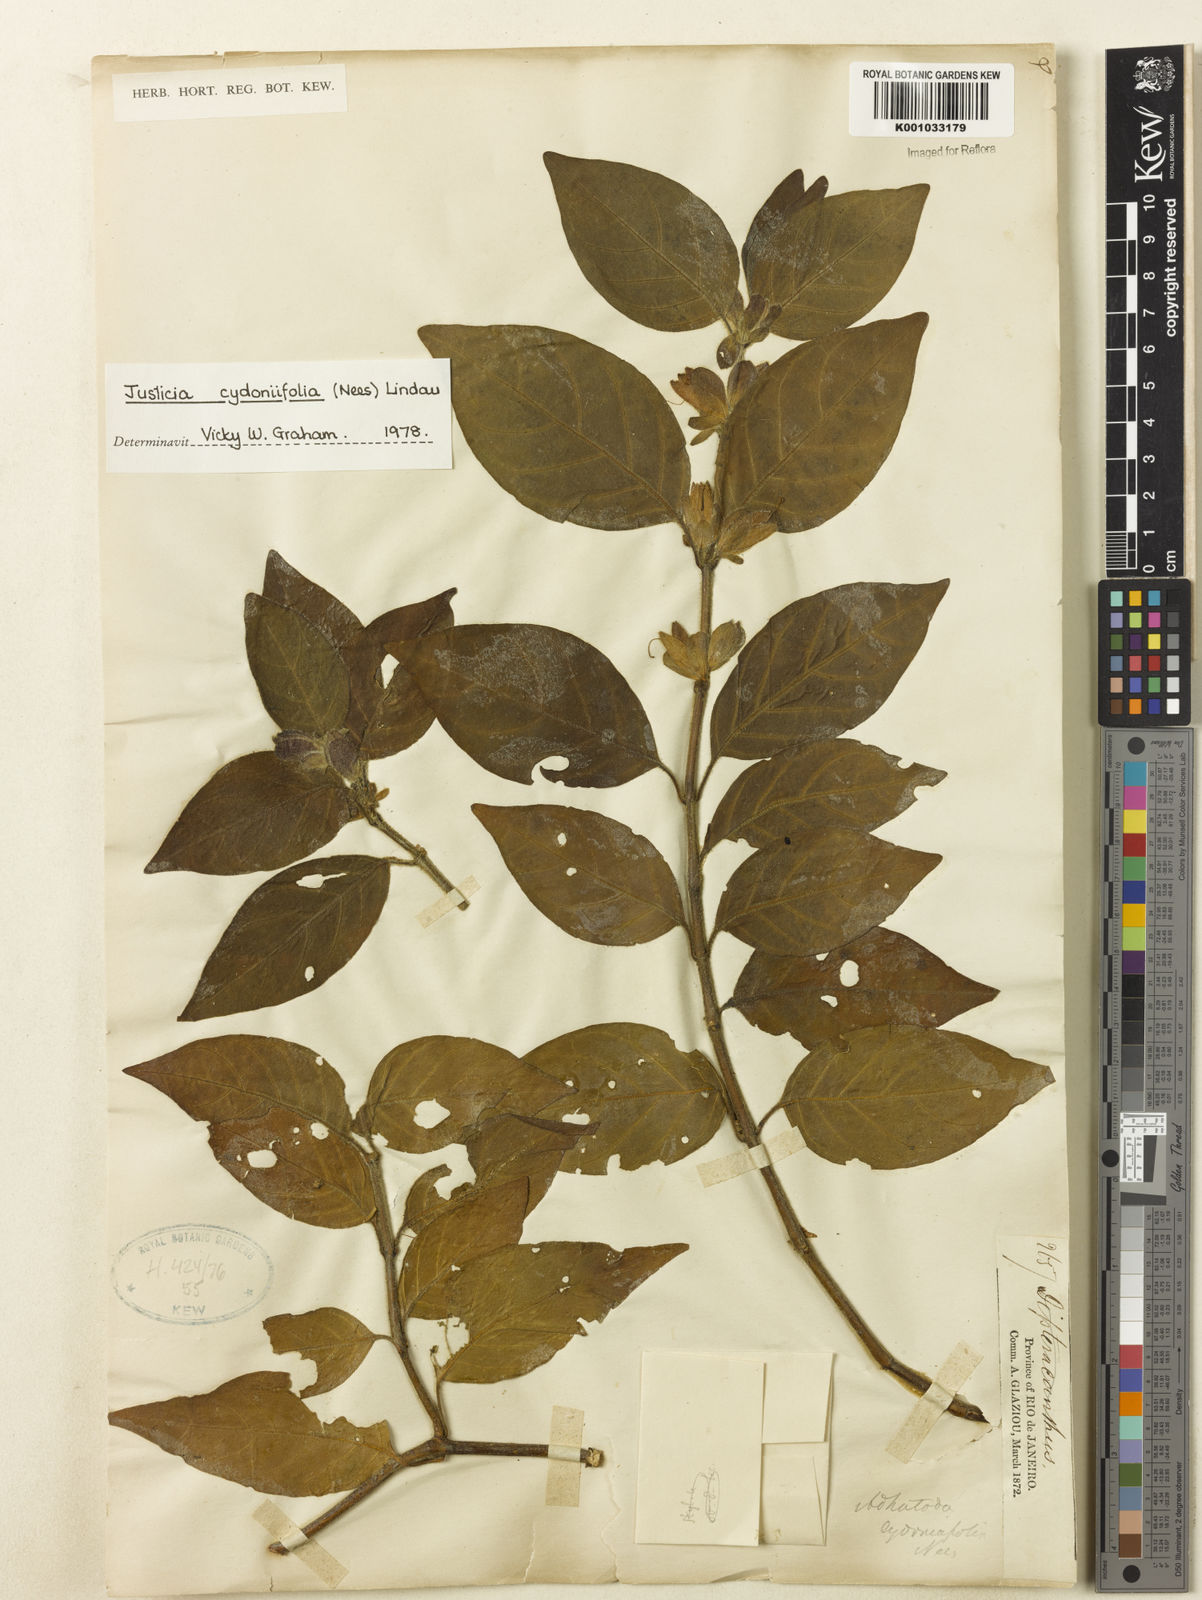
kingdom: Plantae
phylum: Tracheophyta
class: Magnoliopsida
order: Lamiales
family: Acanthaceae
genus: Justicia
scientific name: Justicia
